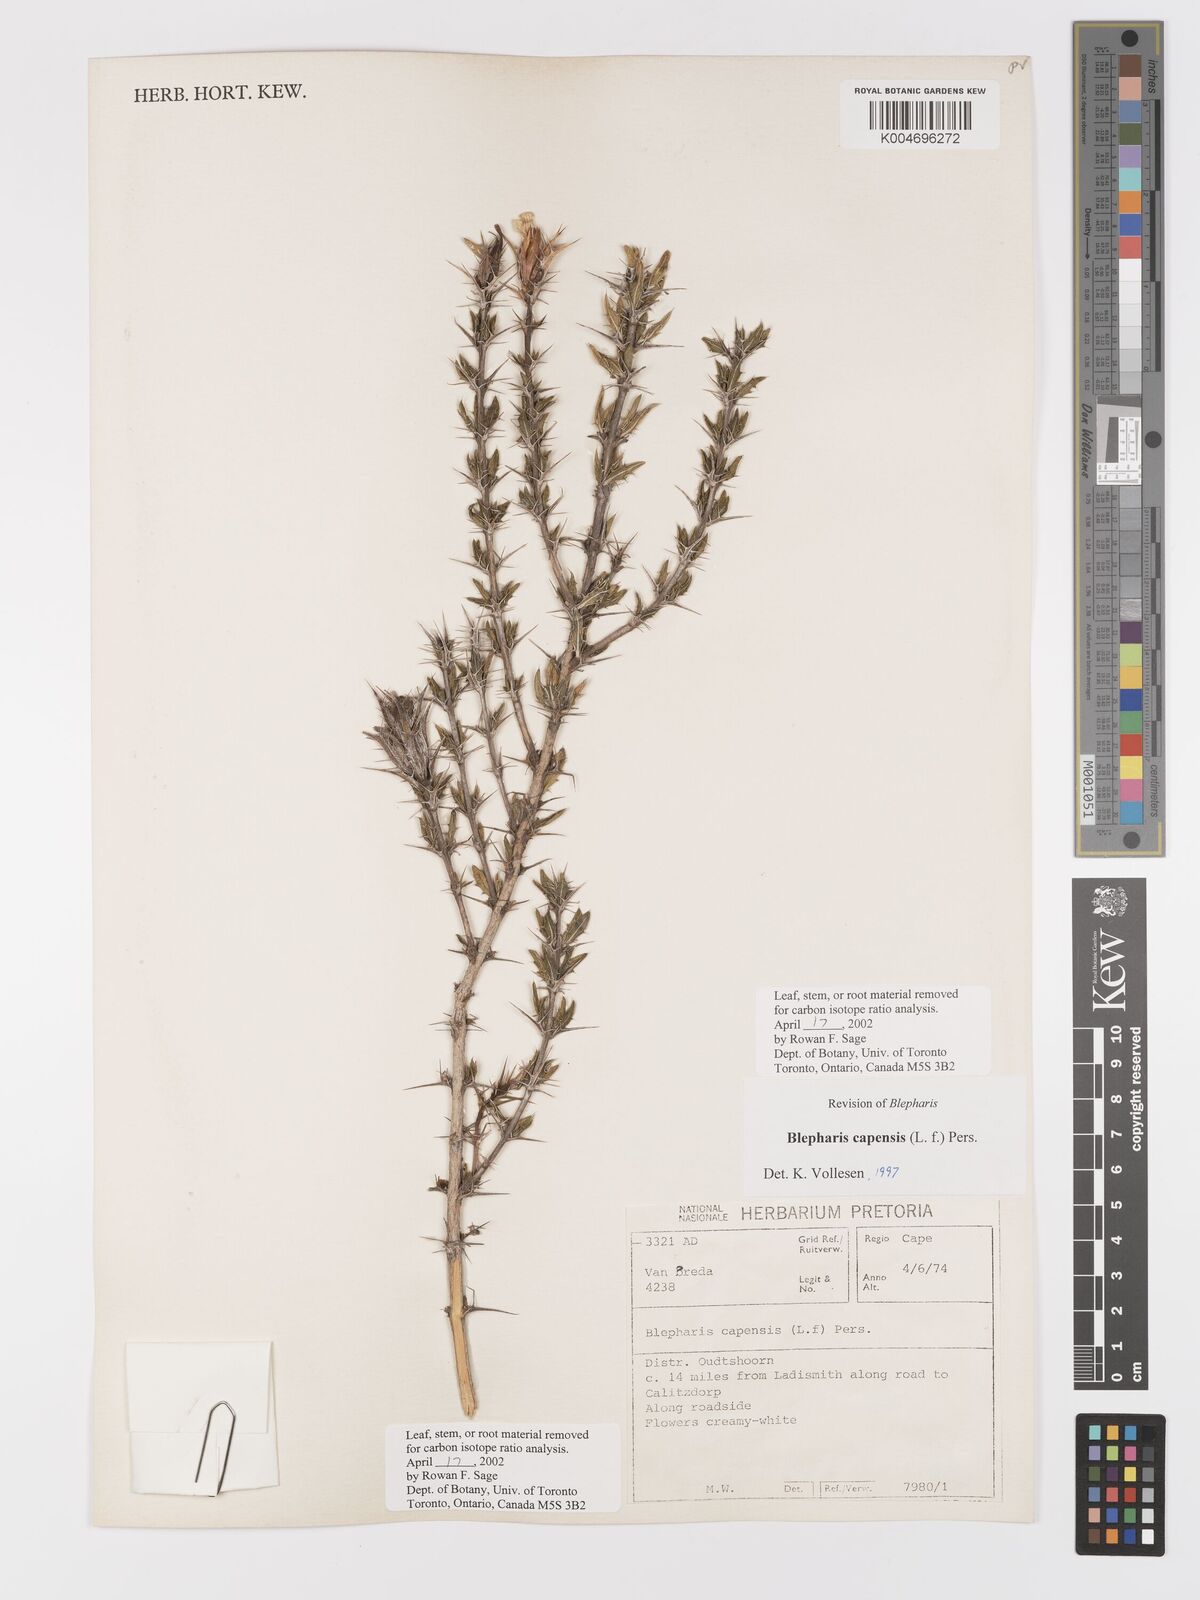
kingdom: Plantae
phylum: Tracheophyta
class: Magnoliopsida
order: Lamiales
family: Acanthaceae
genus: Blepharis
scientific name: Blepharis capensis
